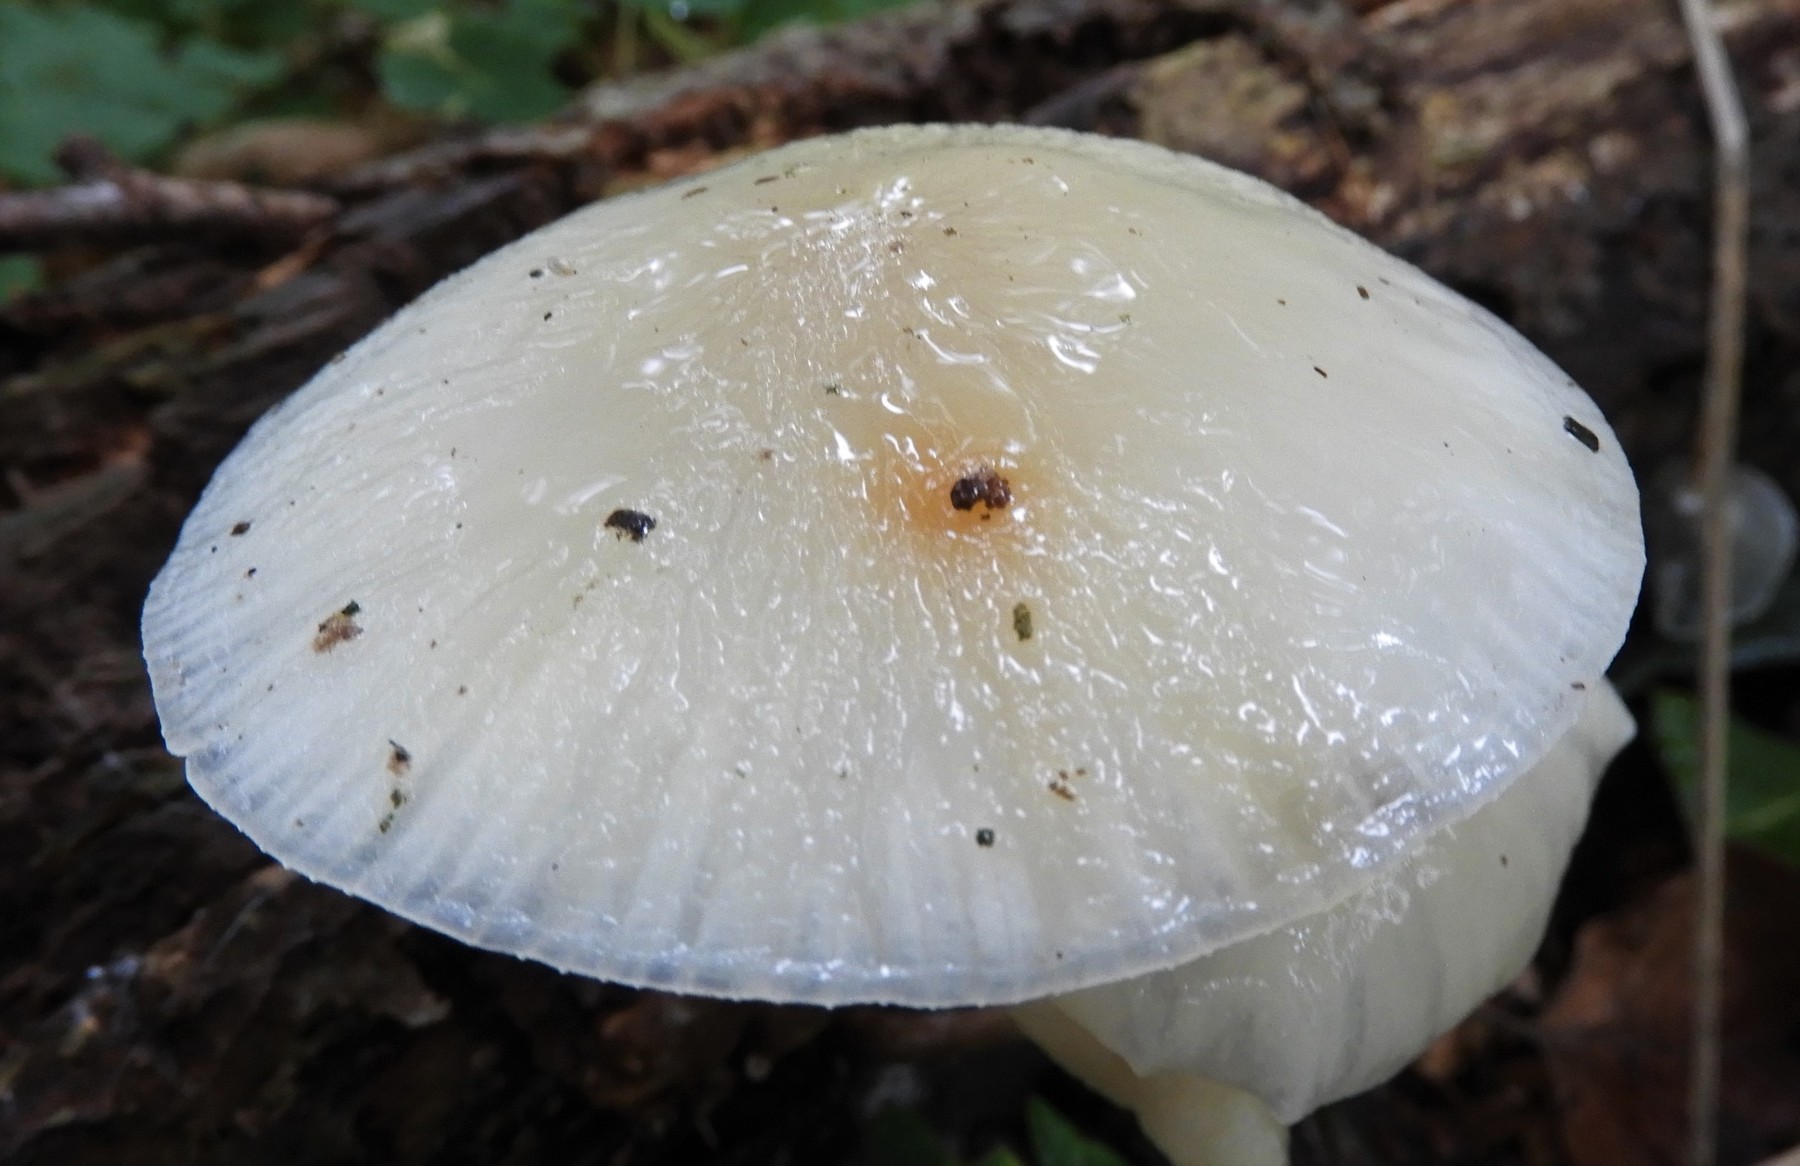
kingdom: Fungi
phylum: Basidiomycota
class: Agaricomycetes
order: Agaricales
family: Physalacriaceae
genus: Mucidula
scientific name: Mucidula mucida
